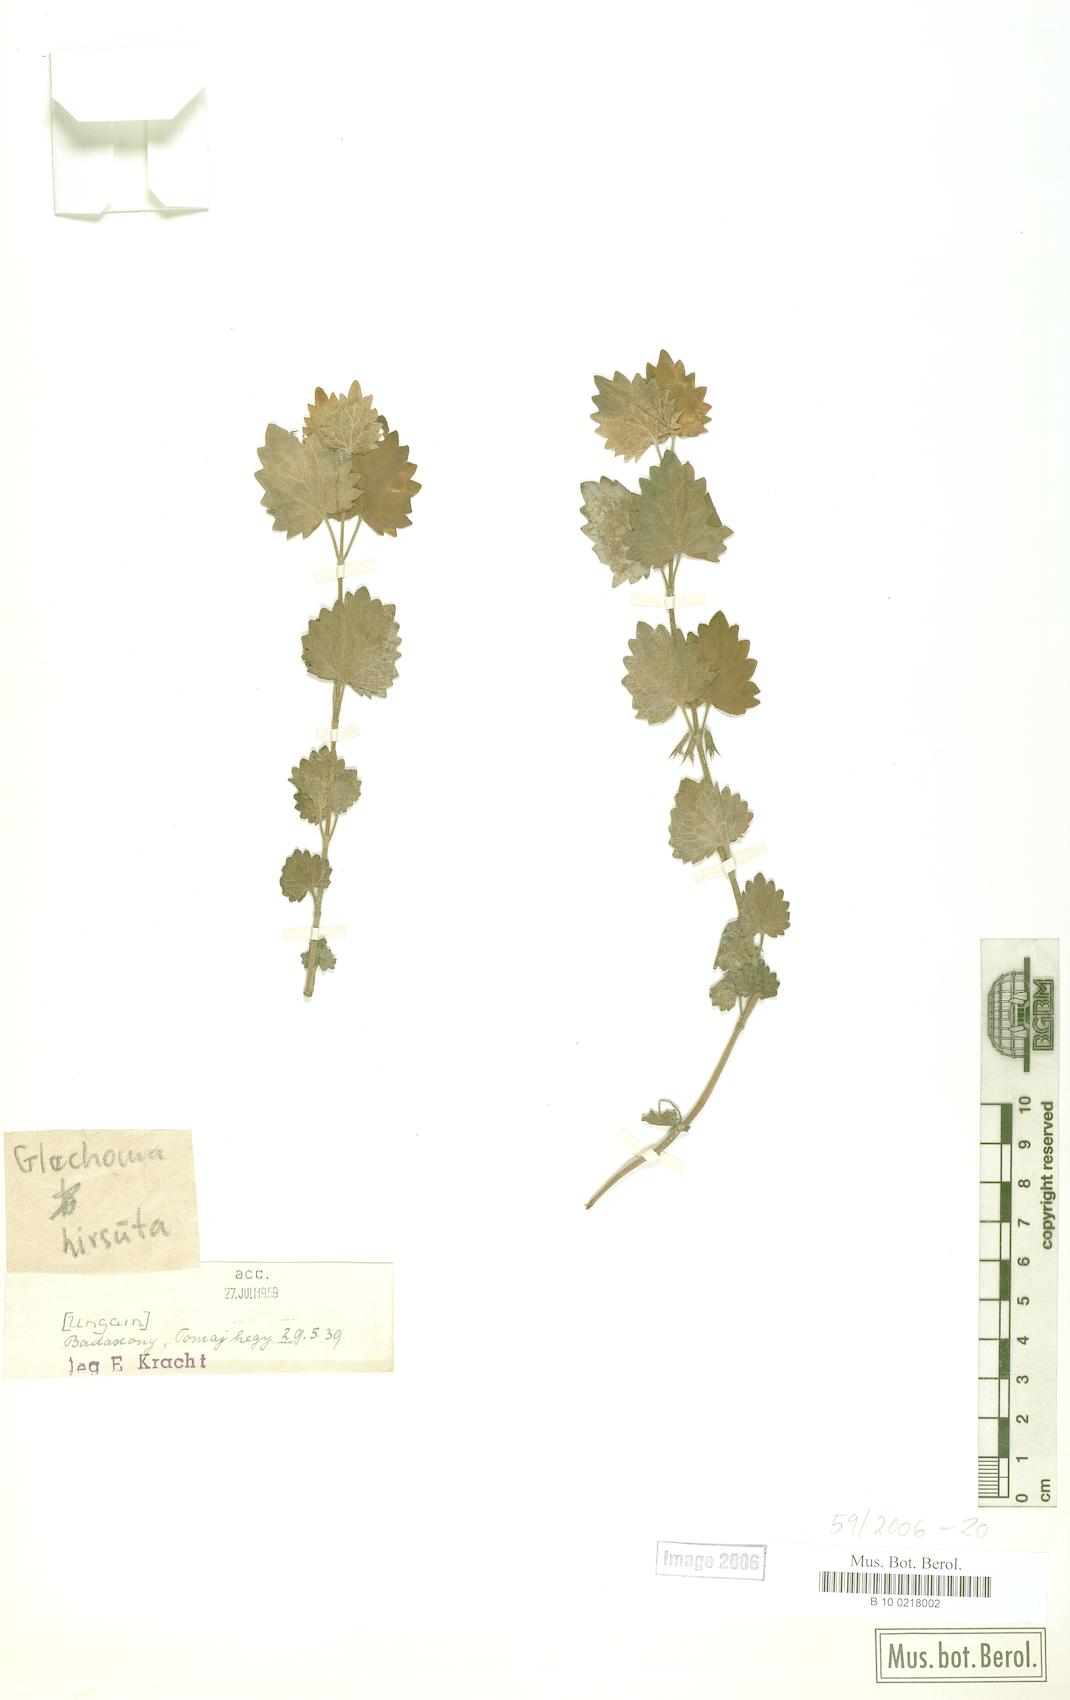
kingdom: Plantae
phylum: Tracheophyta
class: Magnoliopsida
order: Lamiales
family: Lamiaceae
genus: Glechoma
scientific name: Glechoma hirsuta
